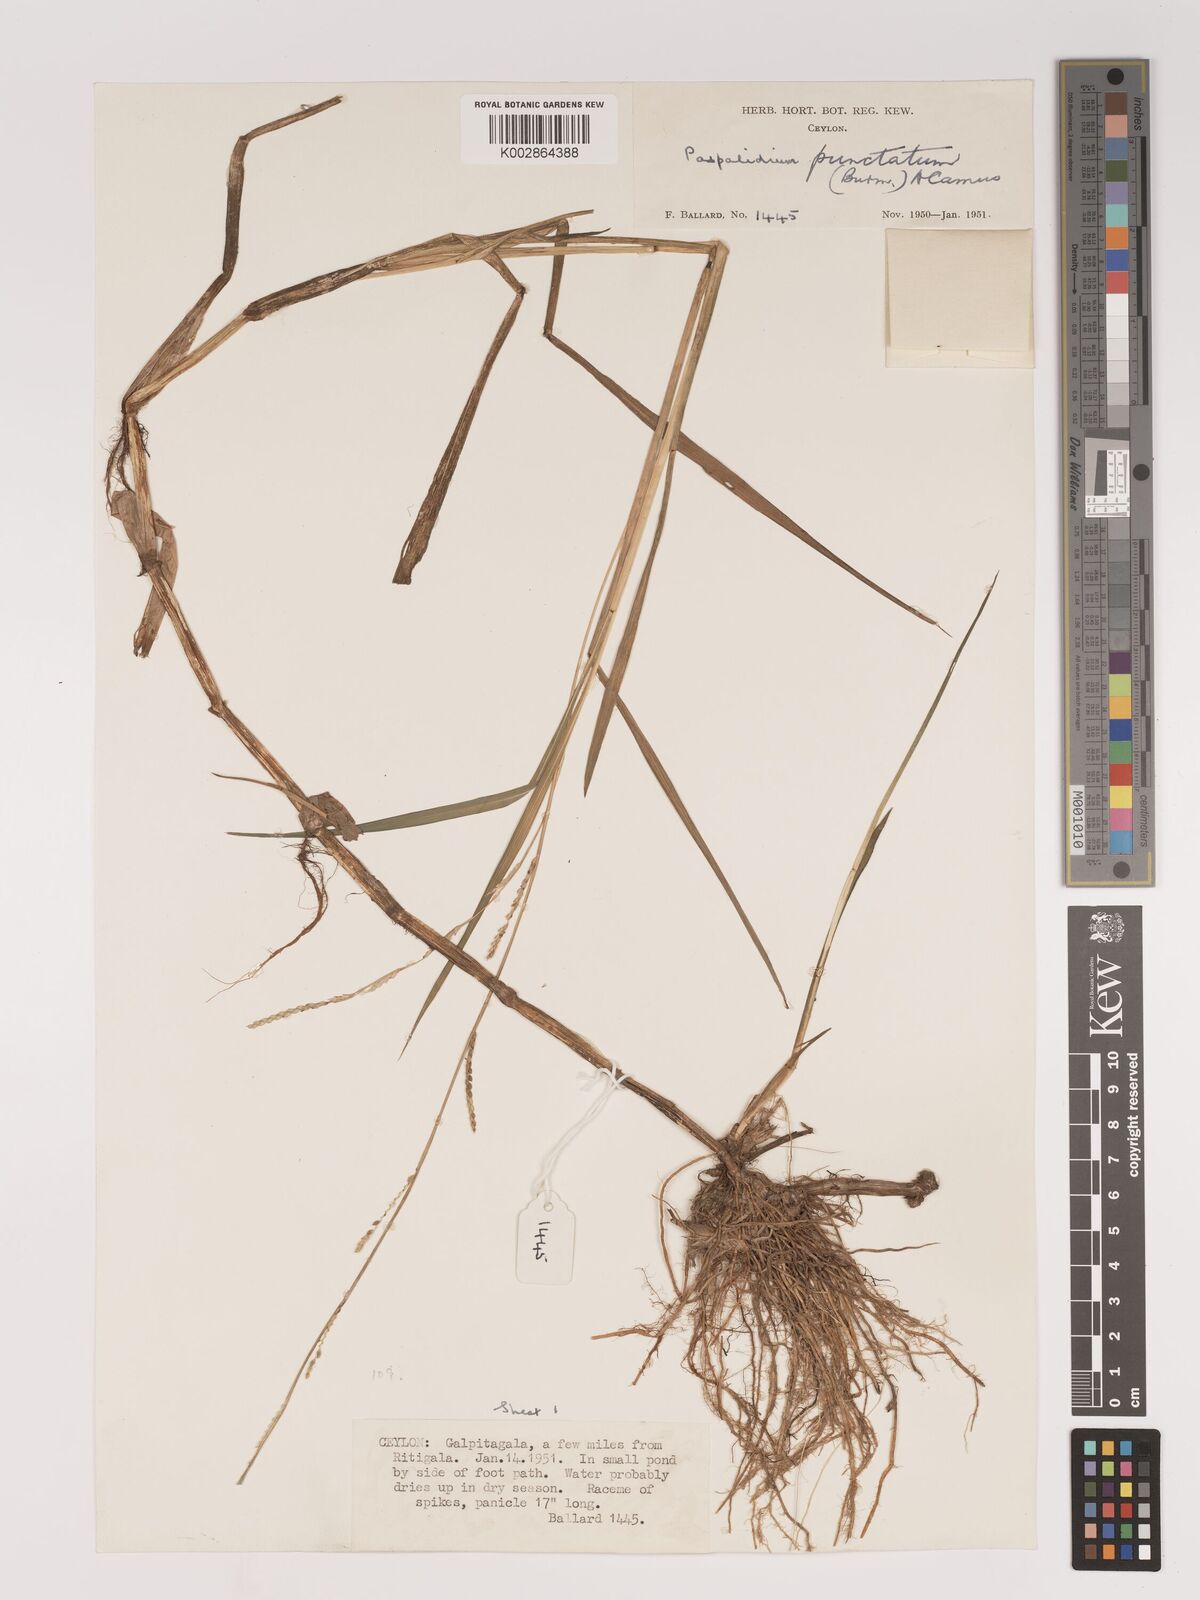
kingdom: Plantae
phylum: Tracheophyta
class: Liliopsida
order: Poales
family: Poaceae
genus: Setaria
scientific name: Setaria punctata
